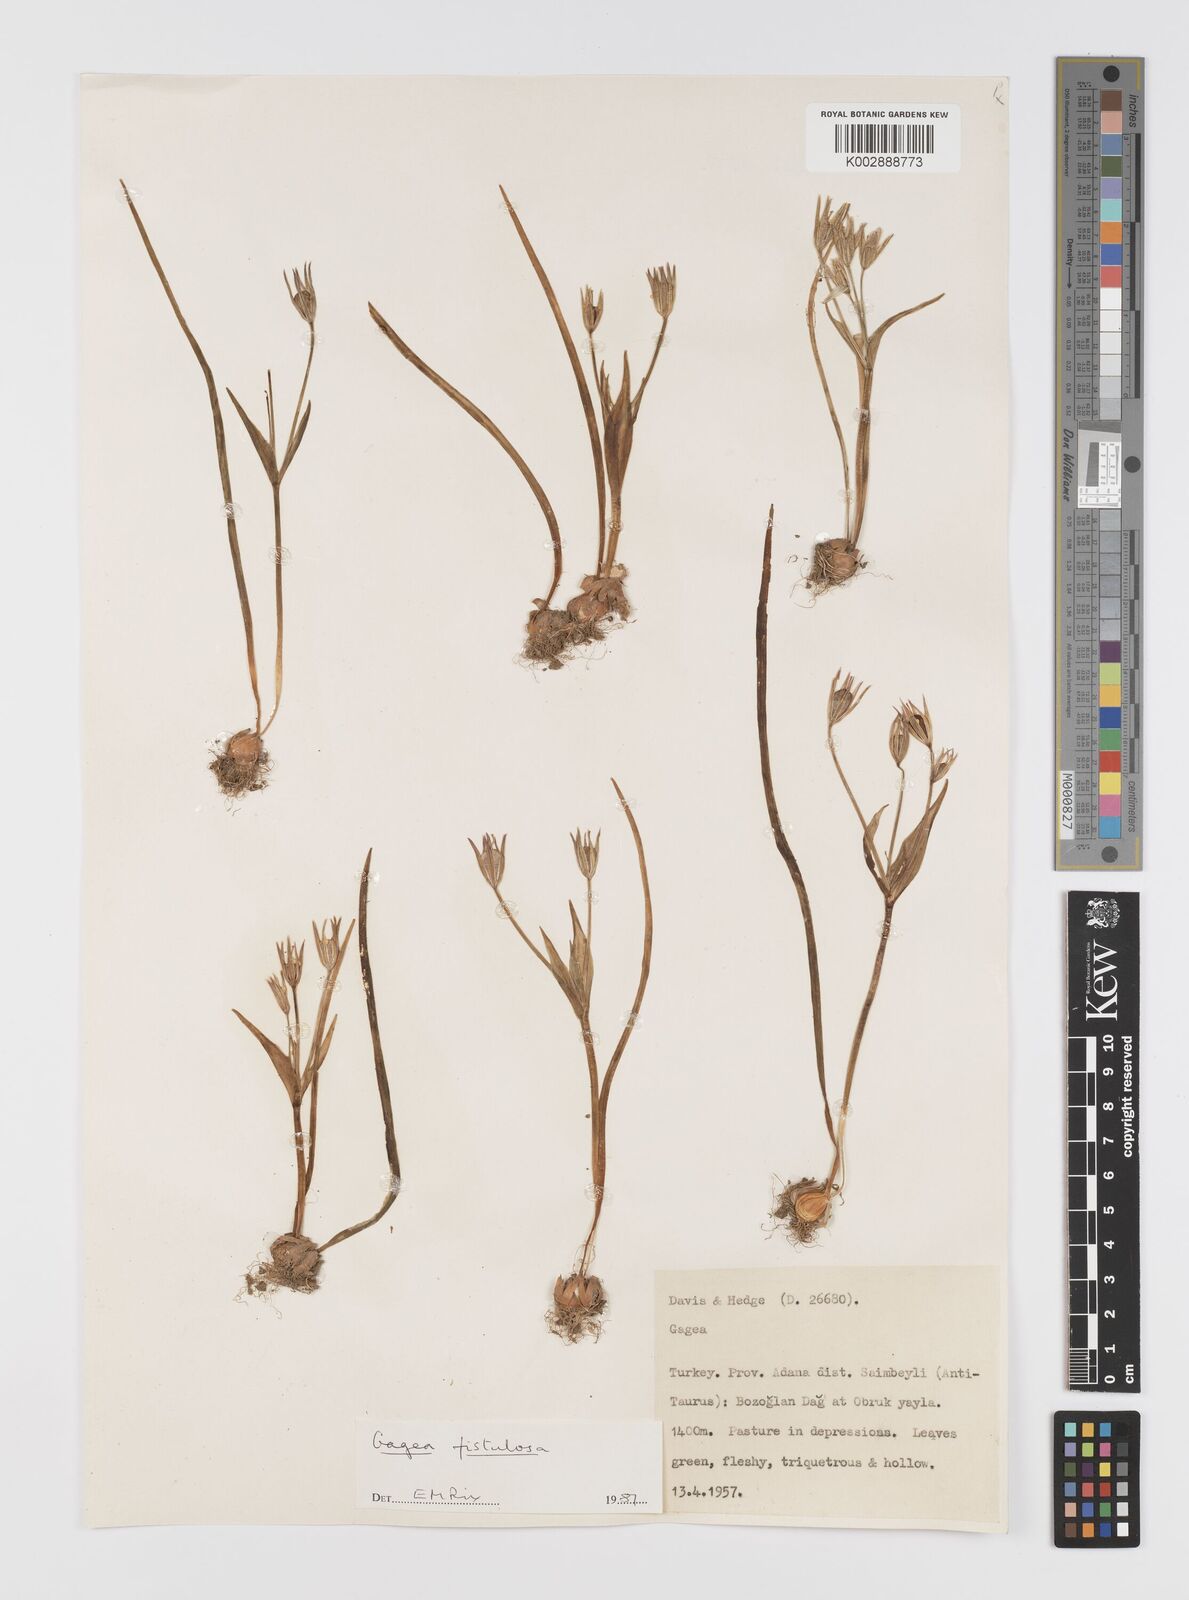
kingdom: Plantae
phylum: Tracheophyta
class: Liliopsida
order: Liliales
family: Liliaceae
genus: Gagea
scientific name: Gagea bohemica
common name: Early star-of-bethlehem
